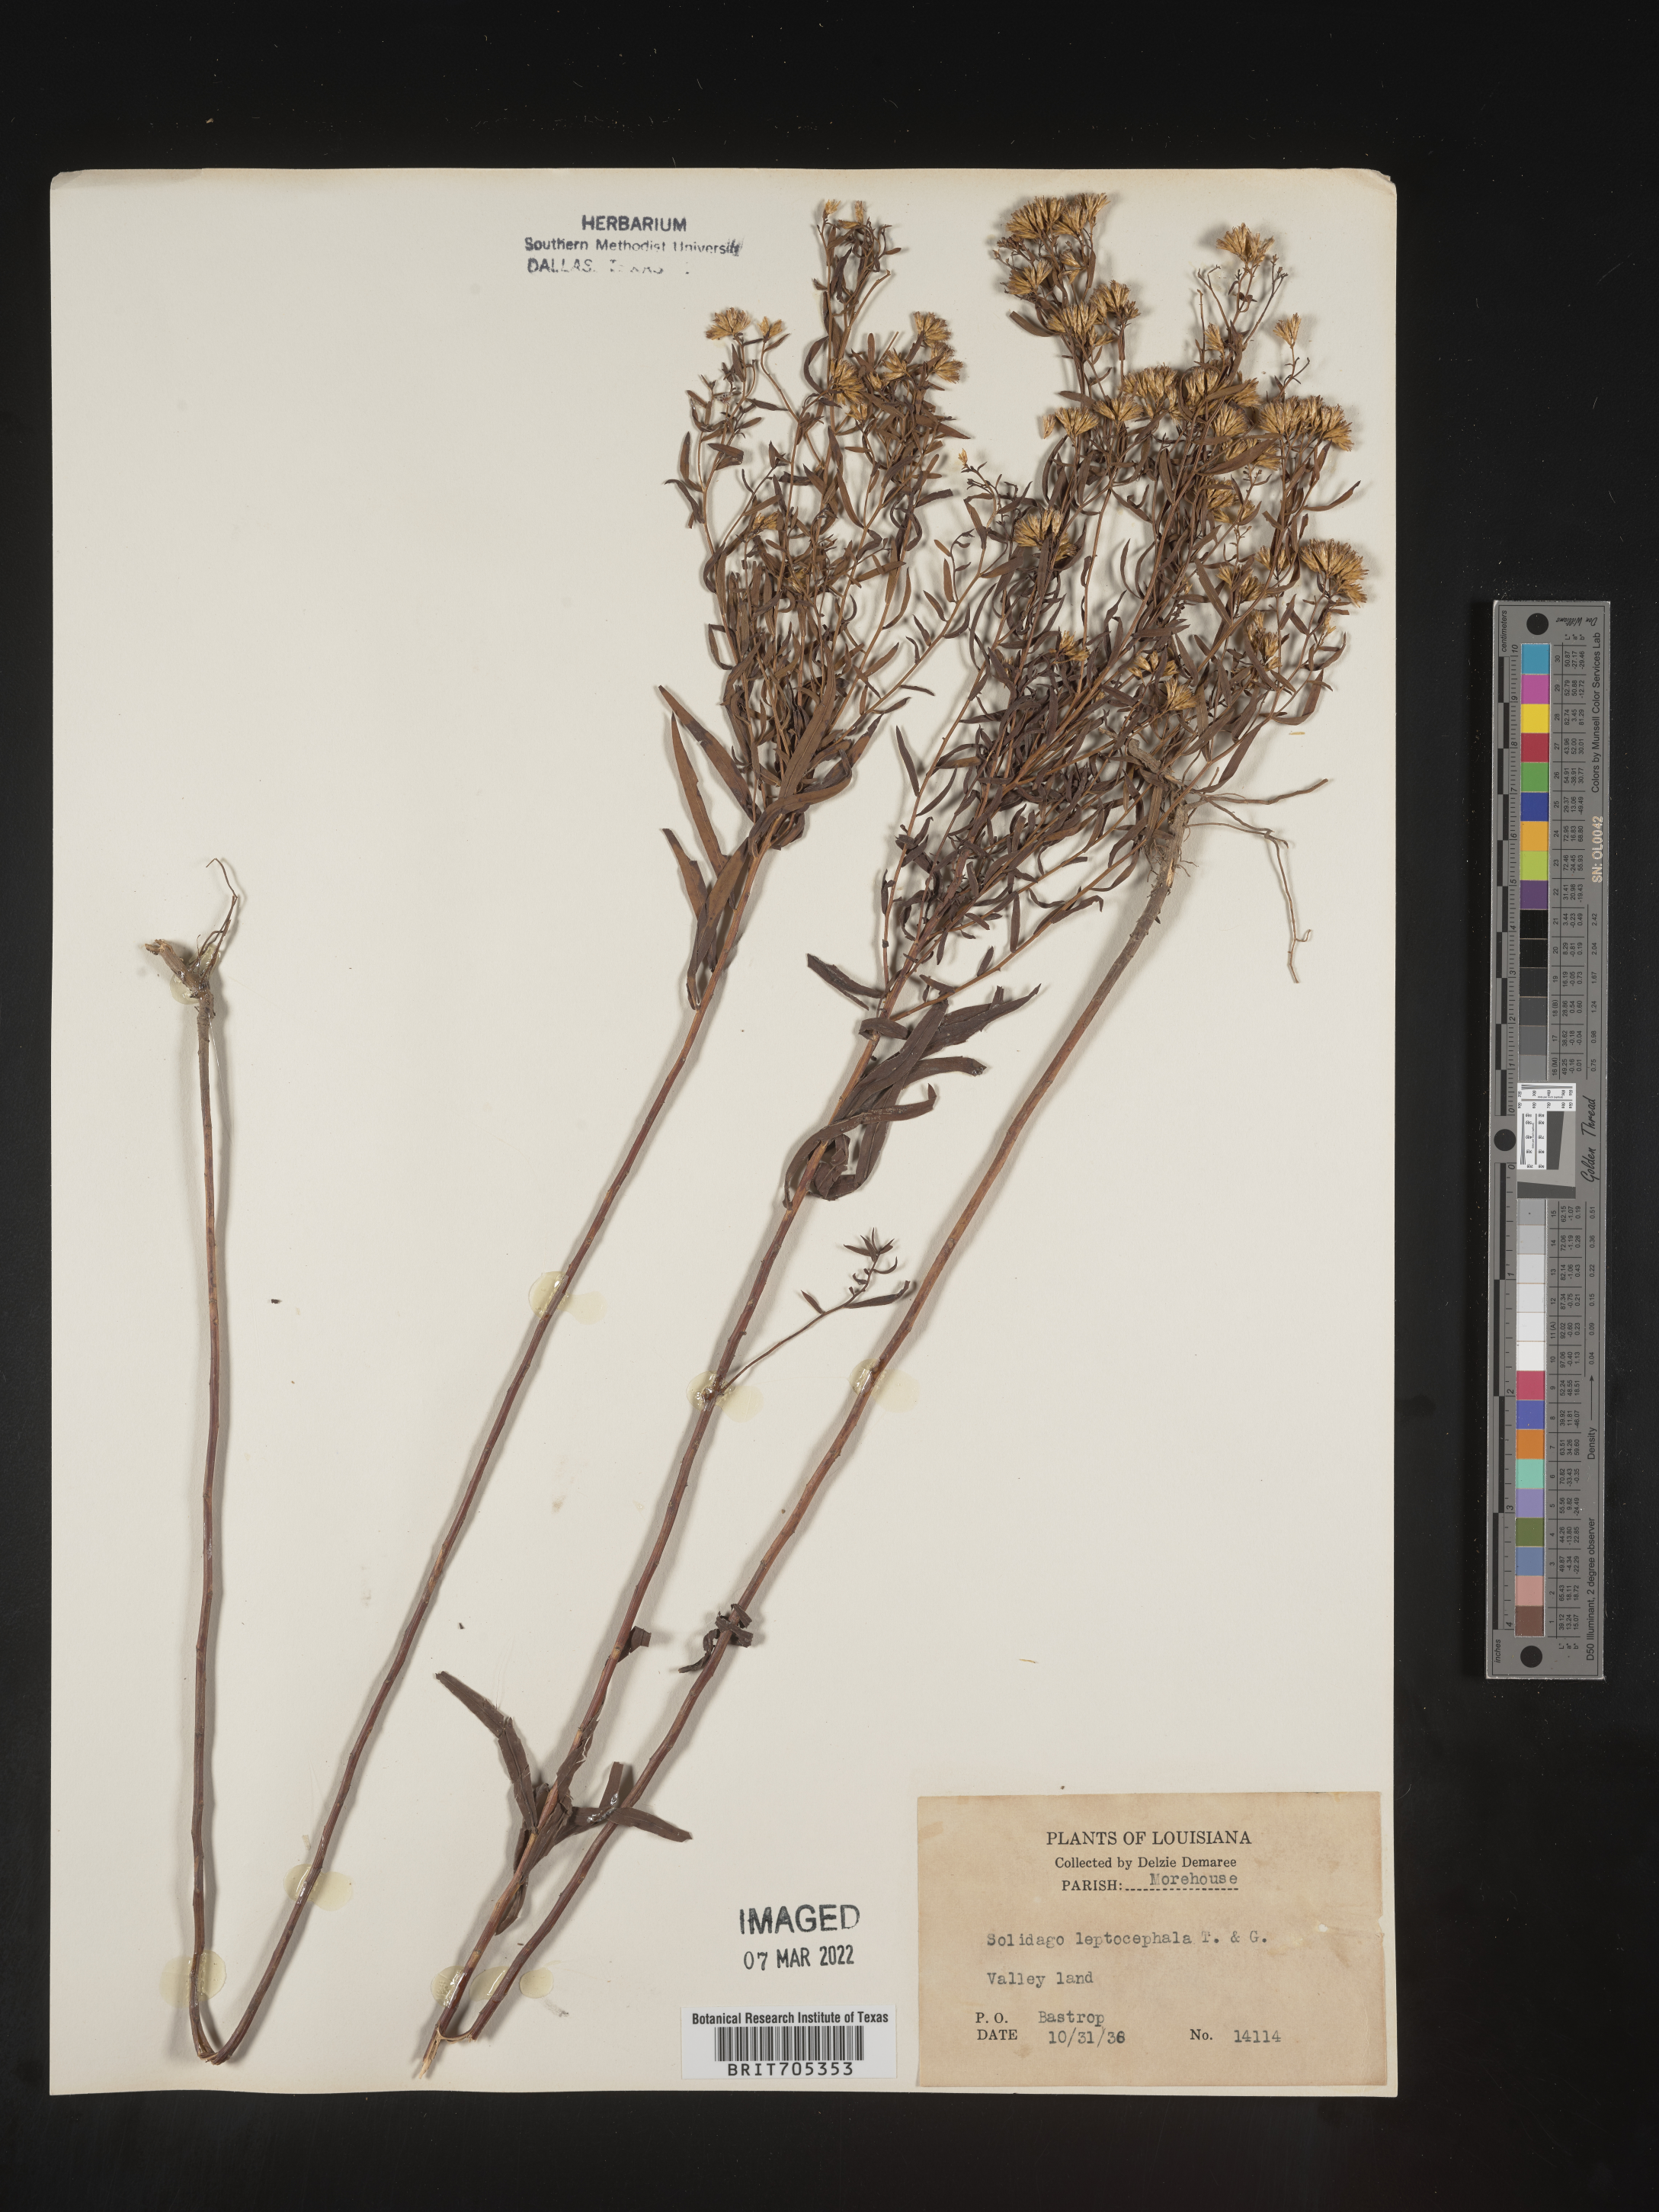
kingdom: Plantae
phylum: Tracheophyta
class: Magnoliopsida
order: Asterales
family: Asteraceae
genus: Euthamia
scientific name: Euthamia leptocephala
